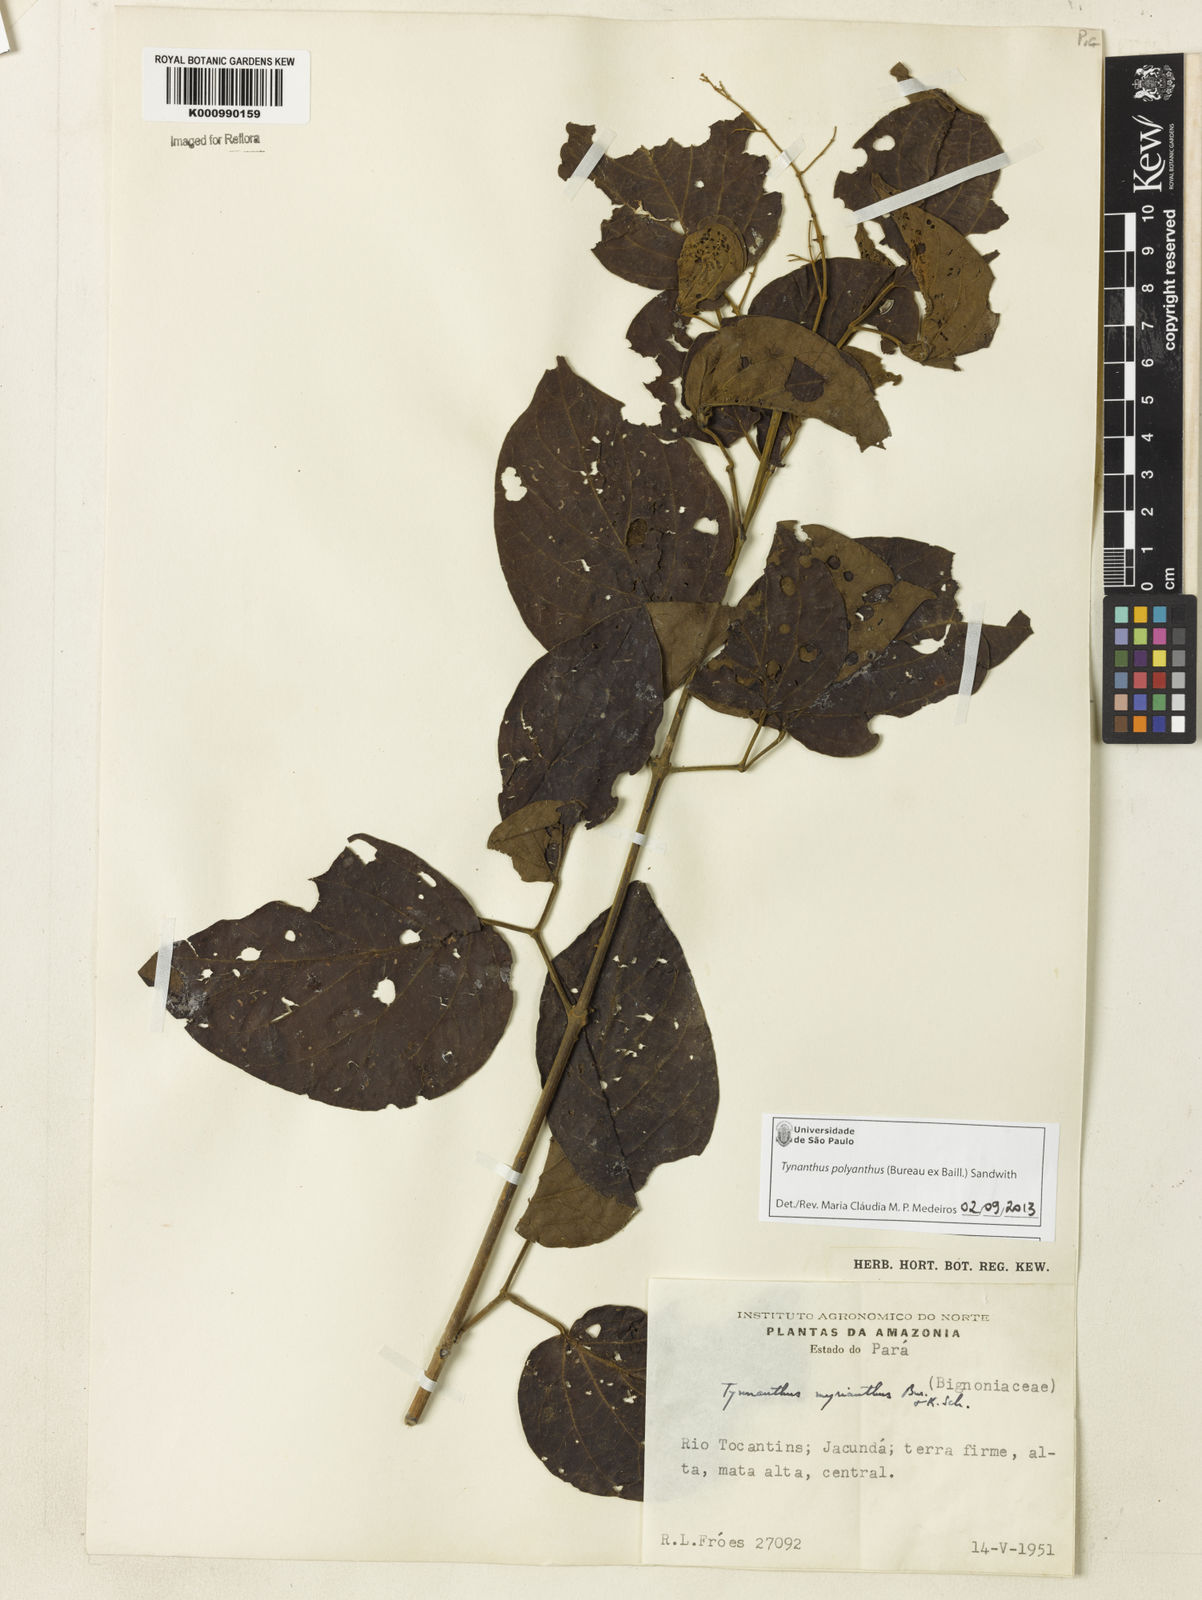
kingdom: Plantae
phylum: Tracheophyta
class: Magnoliopsida
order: Lamiales
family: Bignoniaceae
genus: Tynanthus
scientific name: Tynanthus polyanthus
